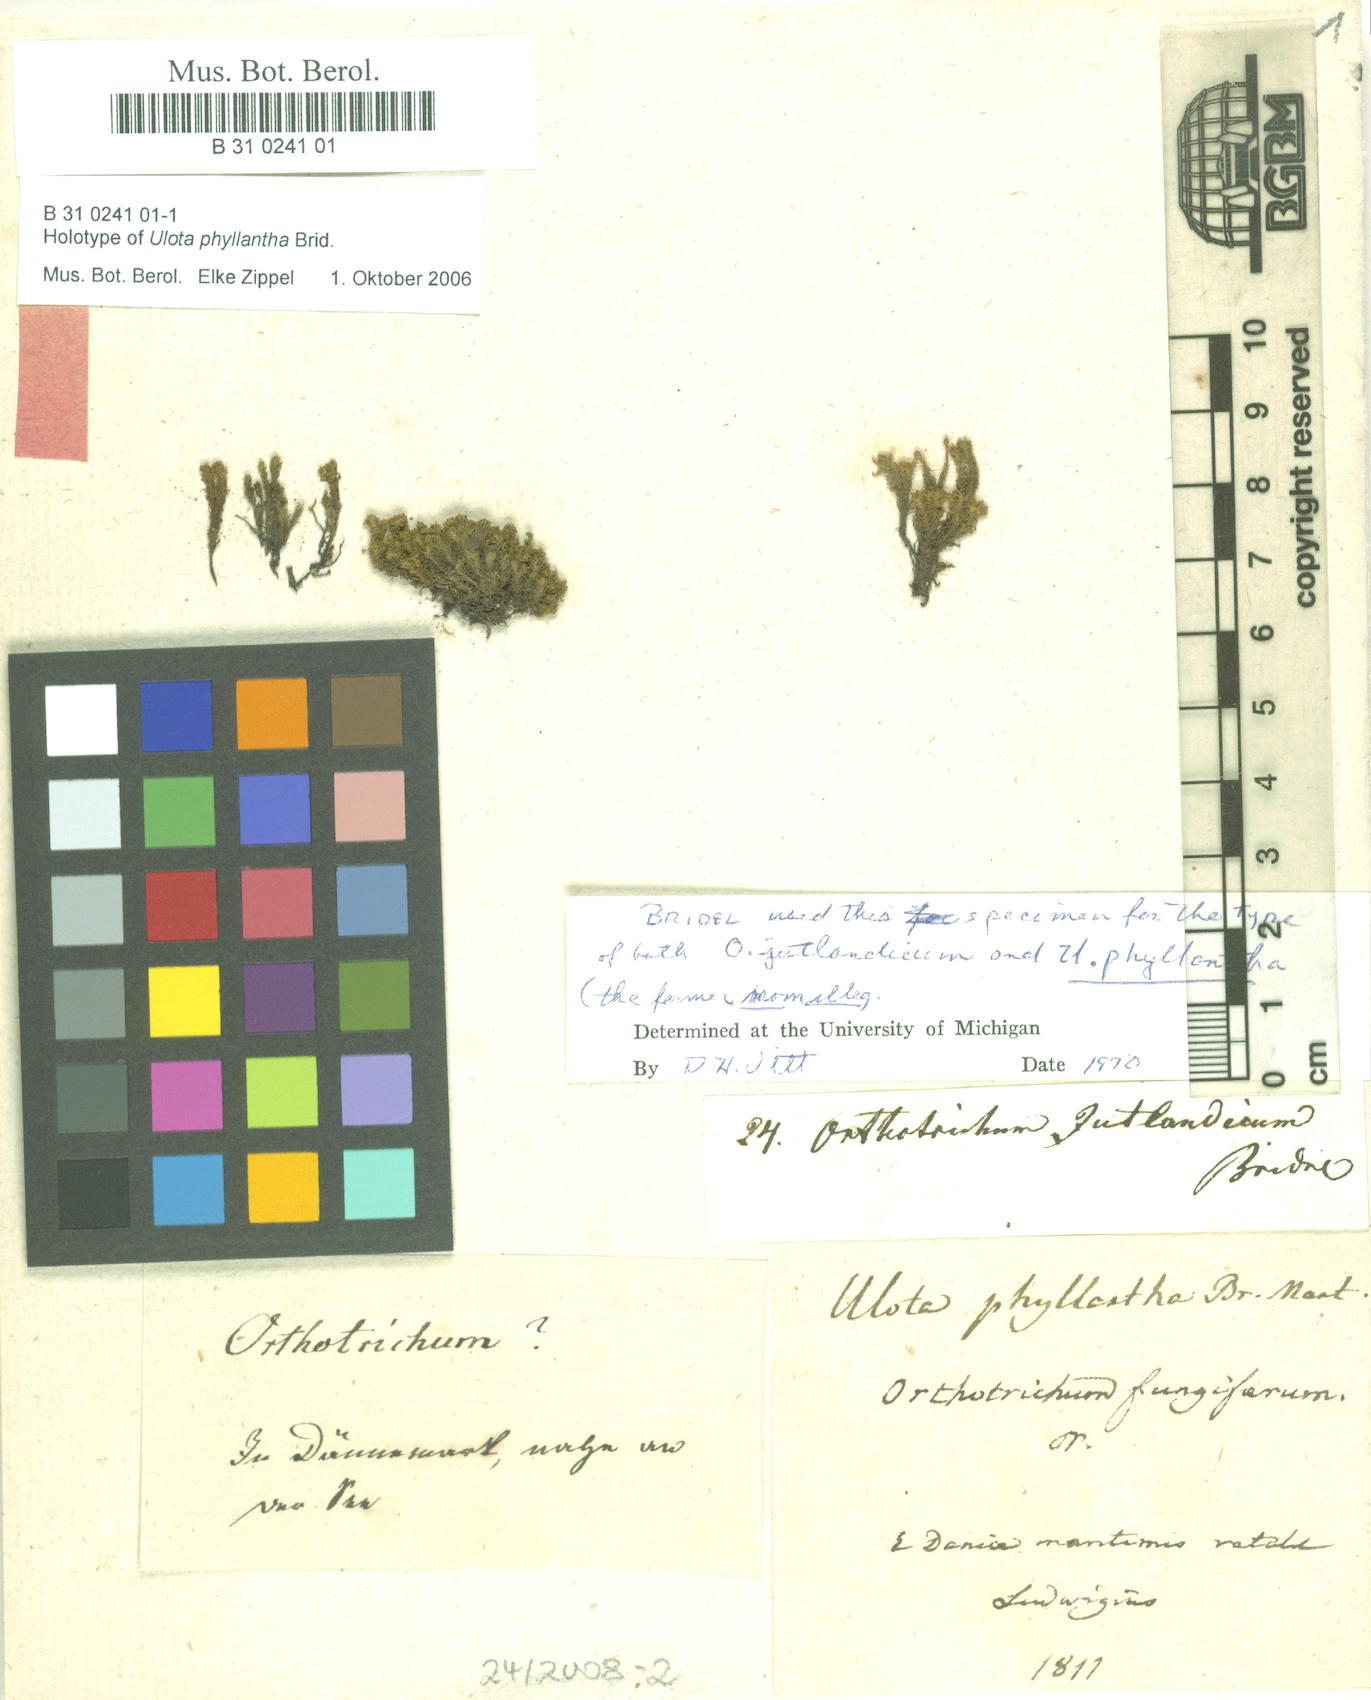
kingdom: Plantae
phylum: Bryophyta
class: Bryopsida
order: Orthotrichales
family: Orthotrichaceae
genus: Plenogemma
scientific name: Plenogemma phyllantha
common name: Frizzled pincushion
